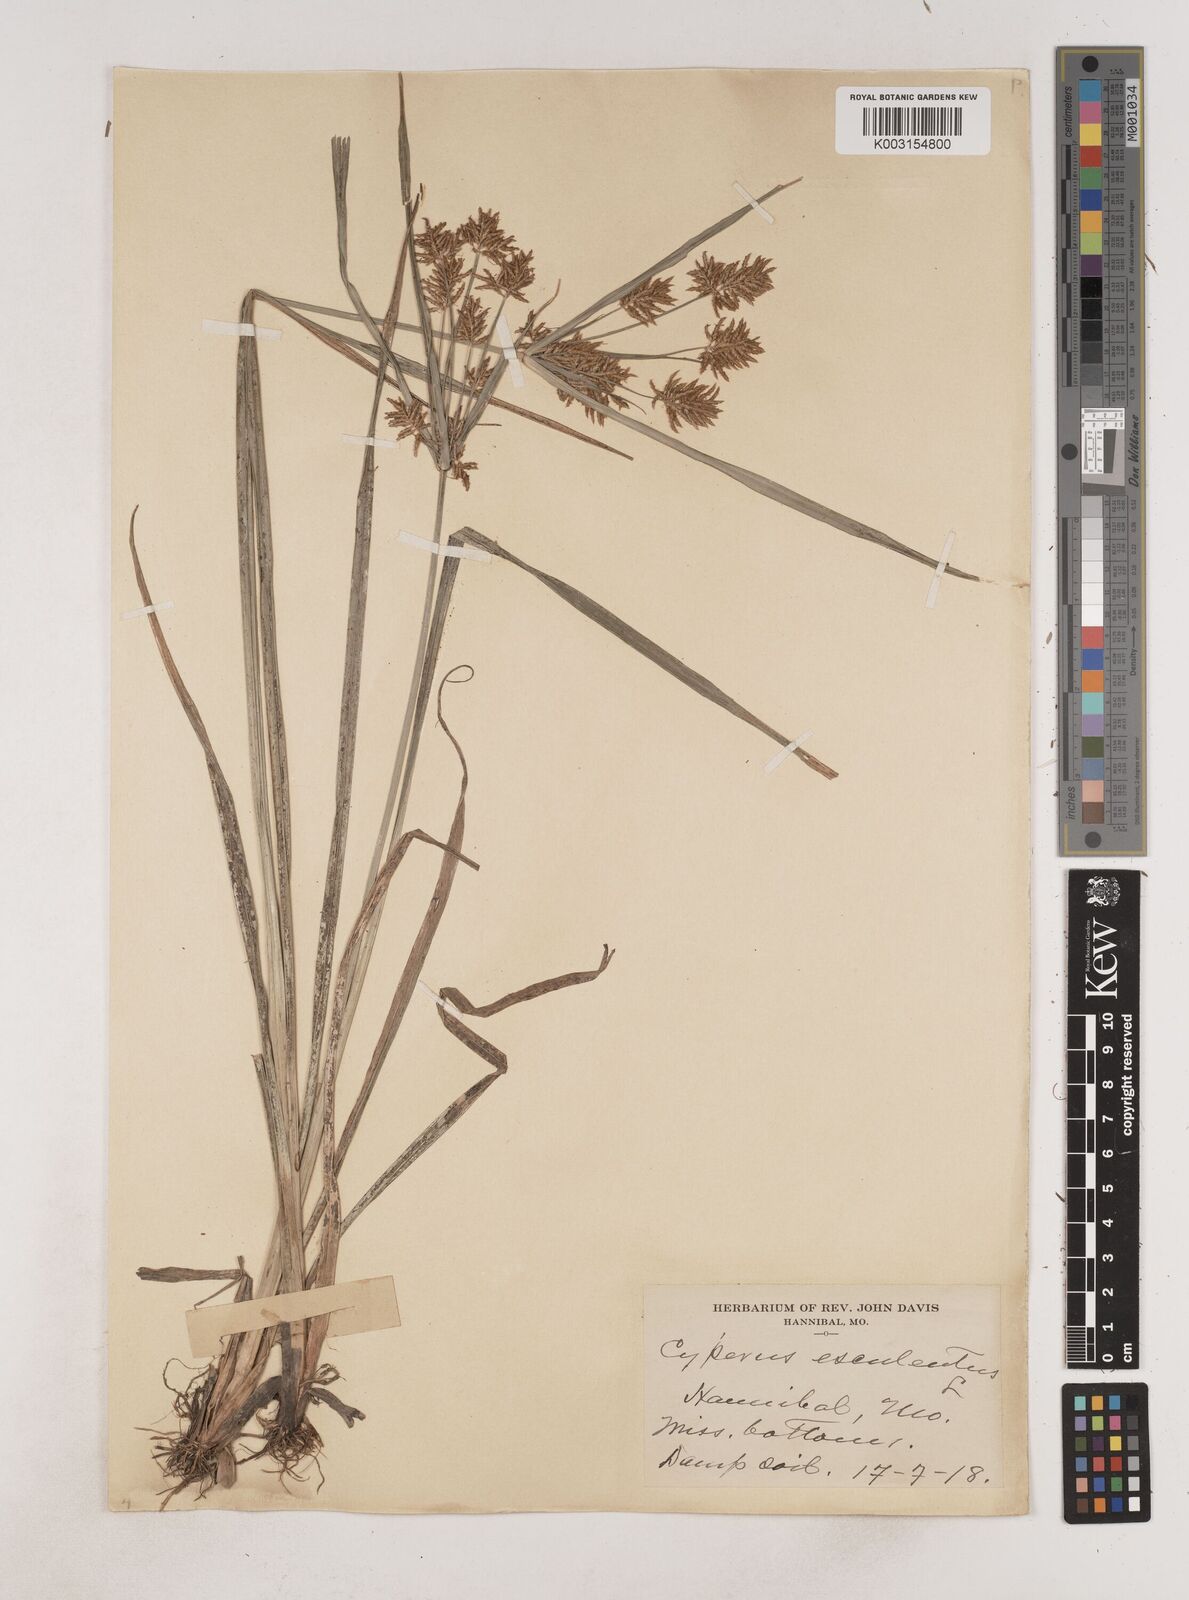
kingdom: Plantae
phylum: Tracheophyta
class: Liliopsida
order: Poales
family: Cyperaceae
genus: Cyperus
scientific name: Cyperus esculentus
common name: Yellow nutsedge
